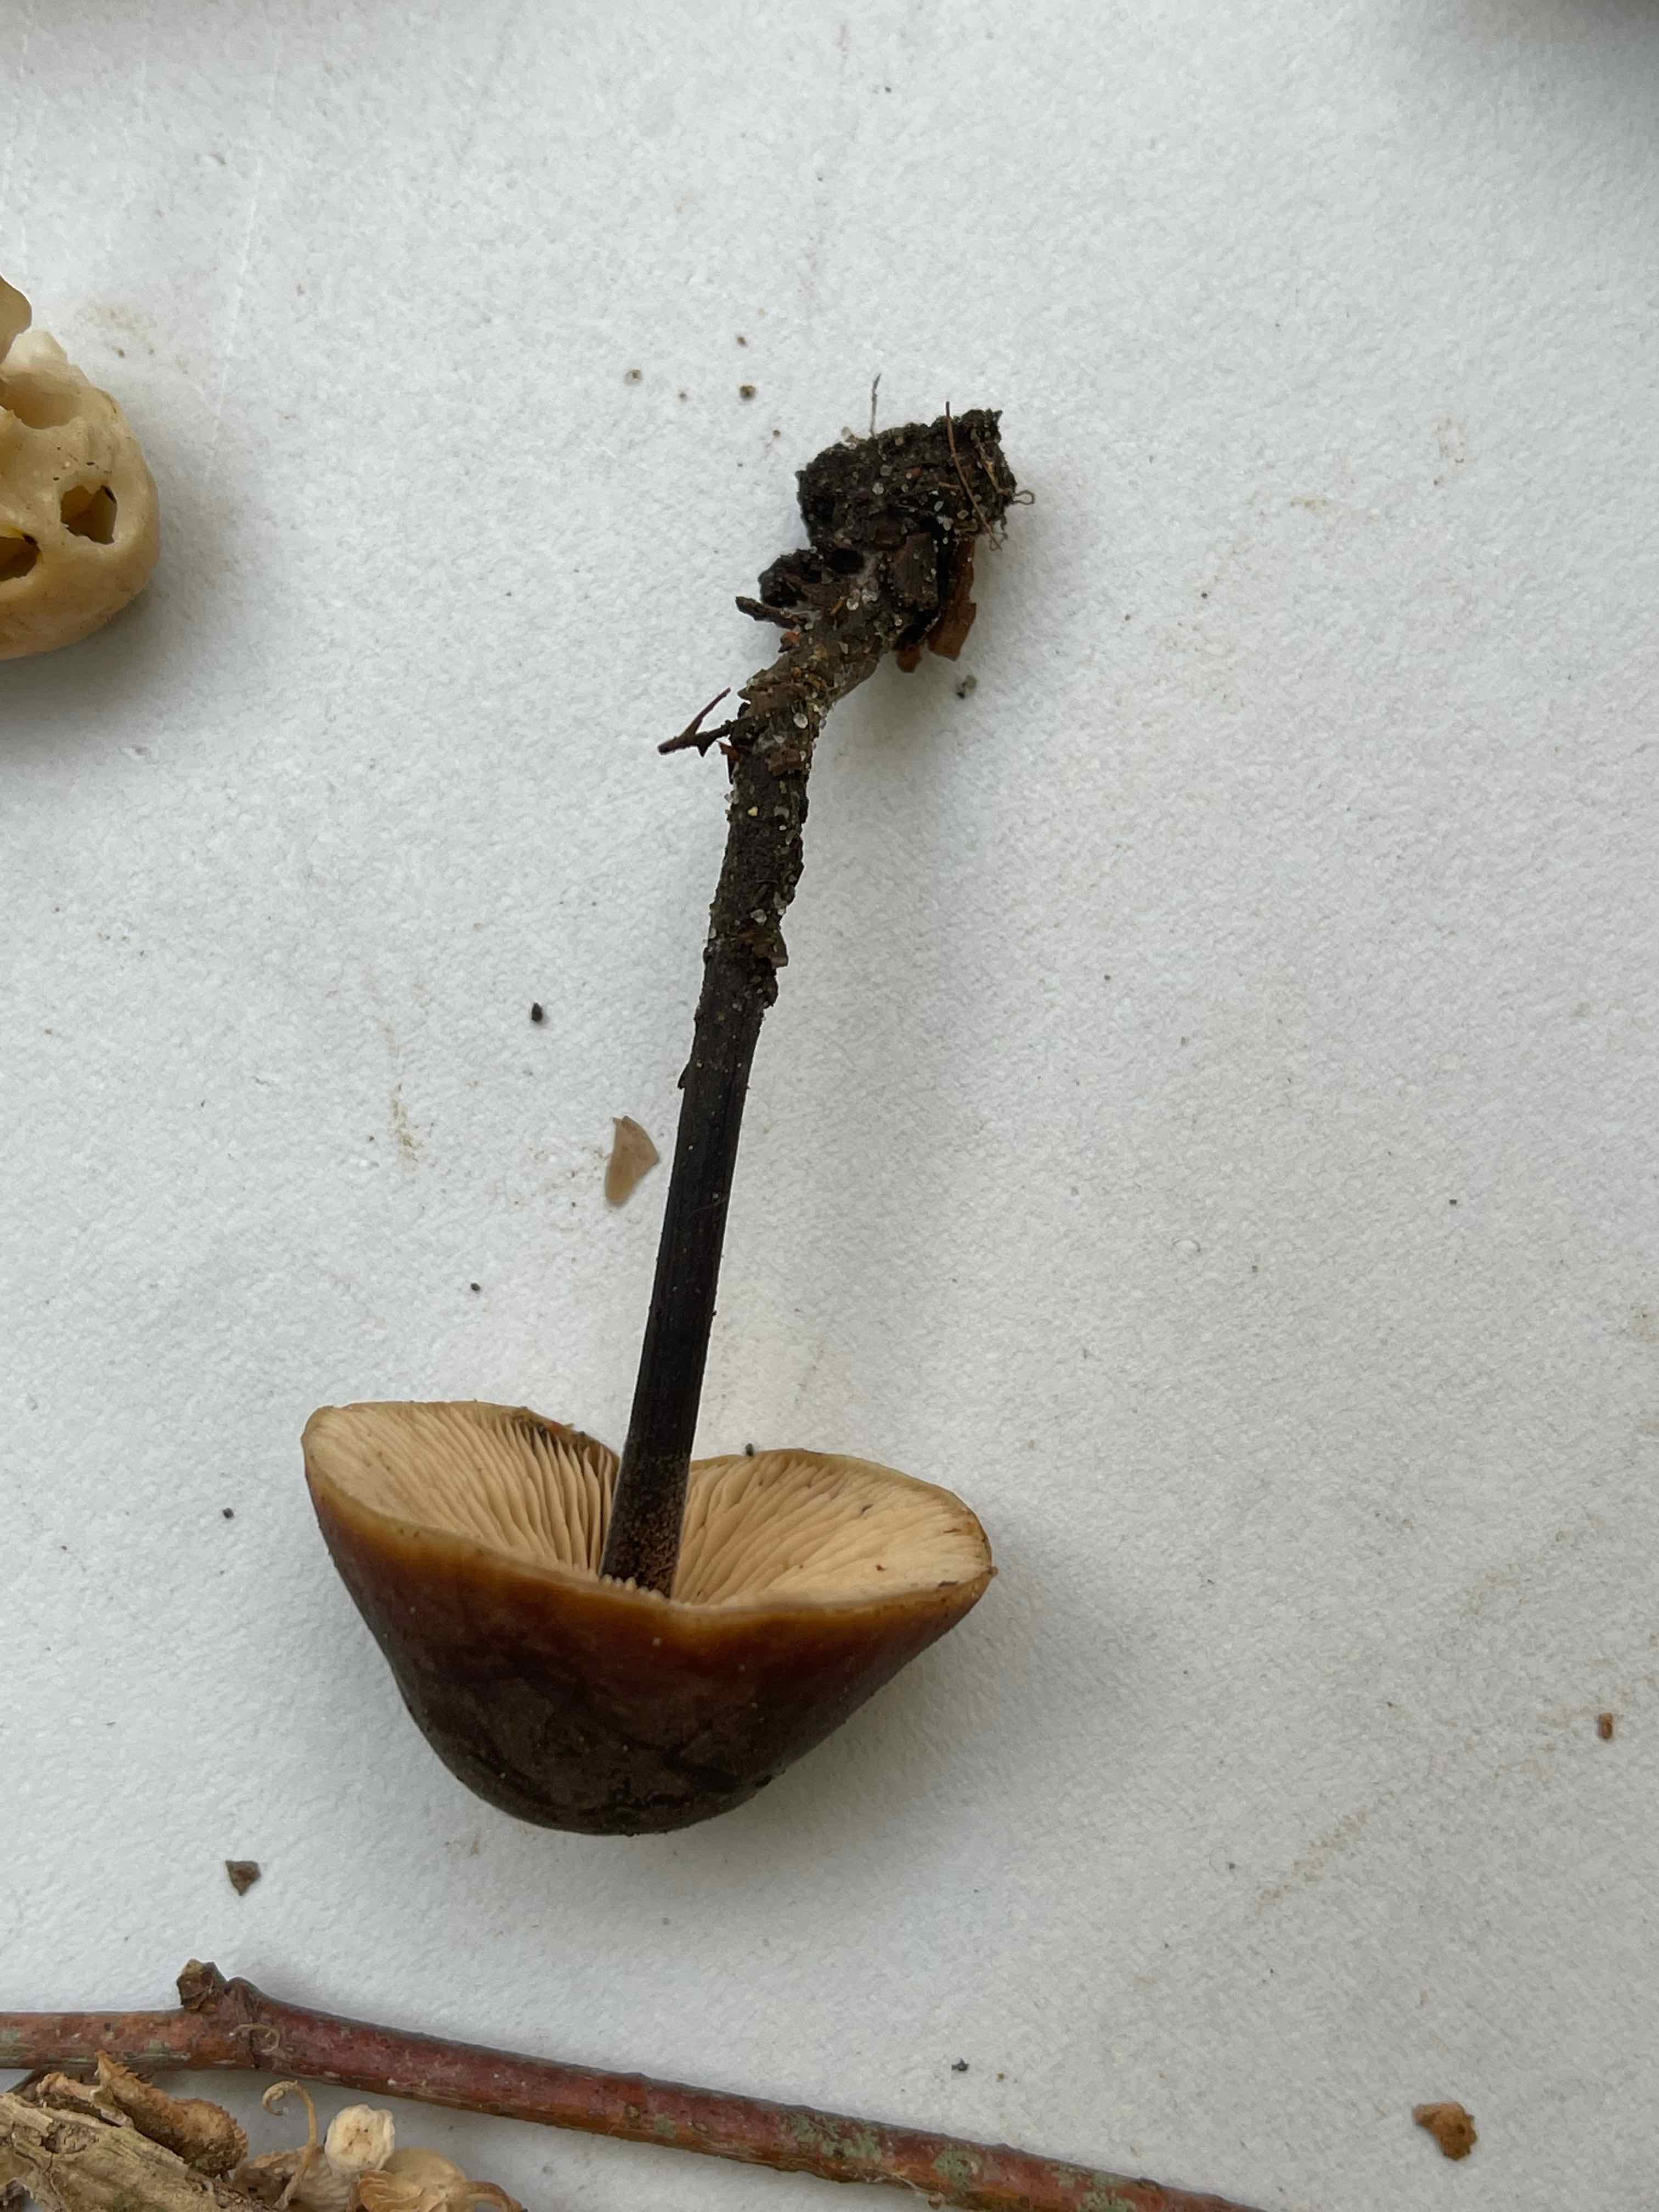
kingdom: Fungi
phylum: Basidiomycota
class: Agaricomycetes
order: Agaricales
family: Macrocystidiaceae
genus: Macrocystidia
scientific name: Macrocystidia cucumis
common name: agurkehat
